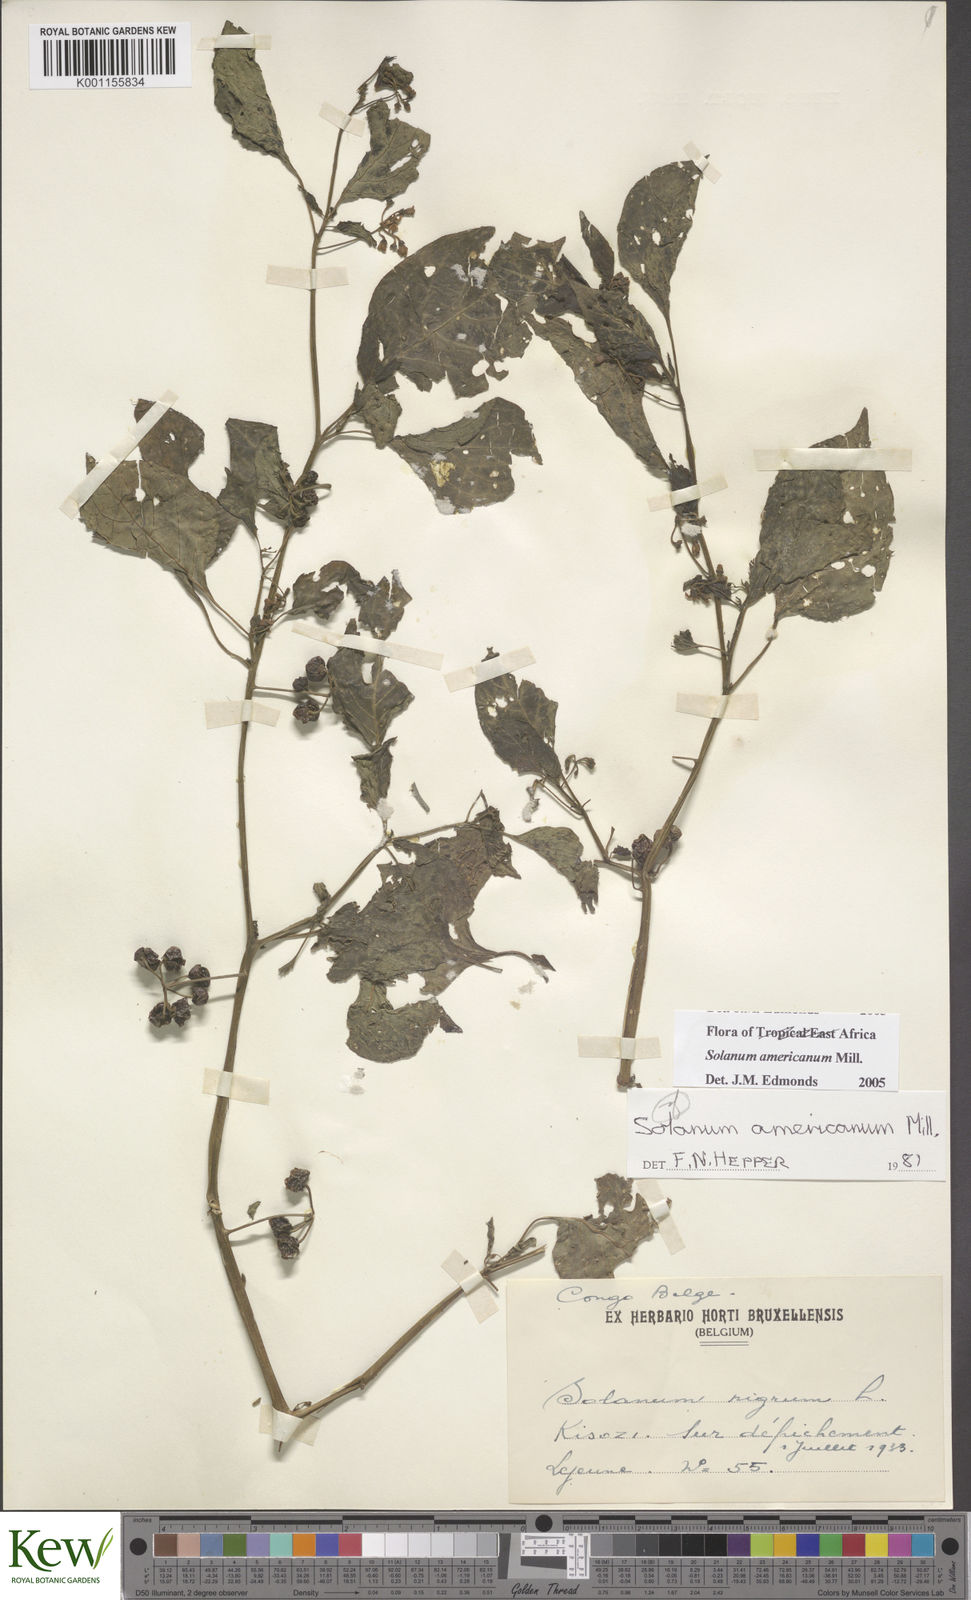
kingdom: Plantae
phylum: Tracheophyta
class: Magnoliopsida
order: Solanales
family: Solanaceae
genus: Solanum
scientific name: Solanum americanum
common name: American black nightshade
